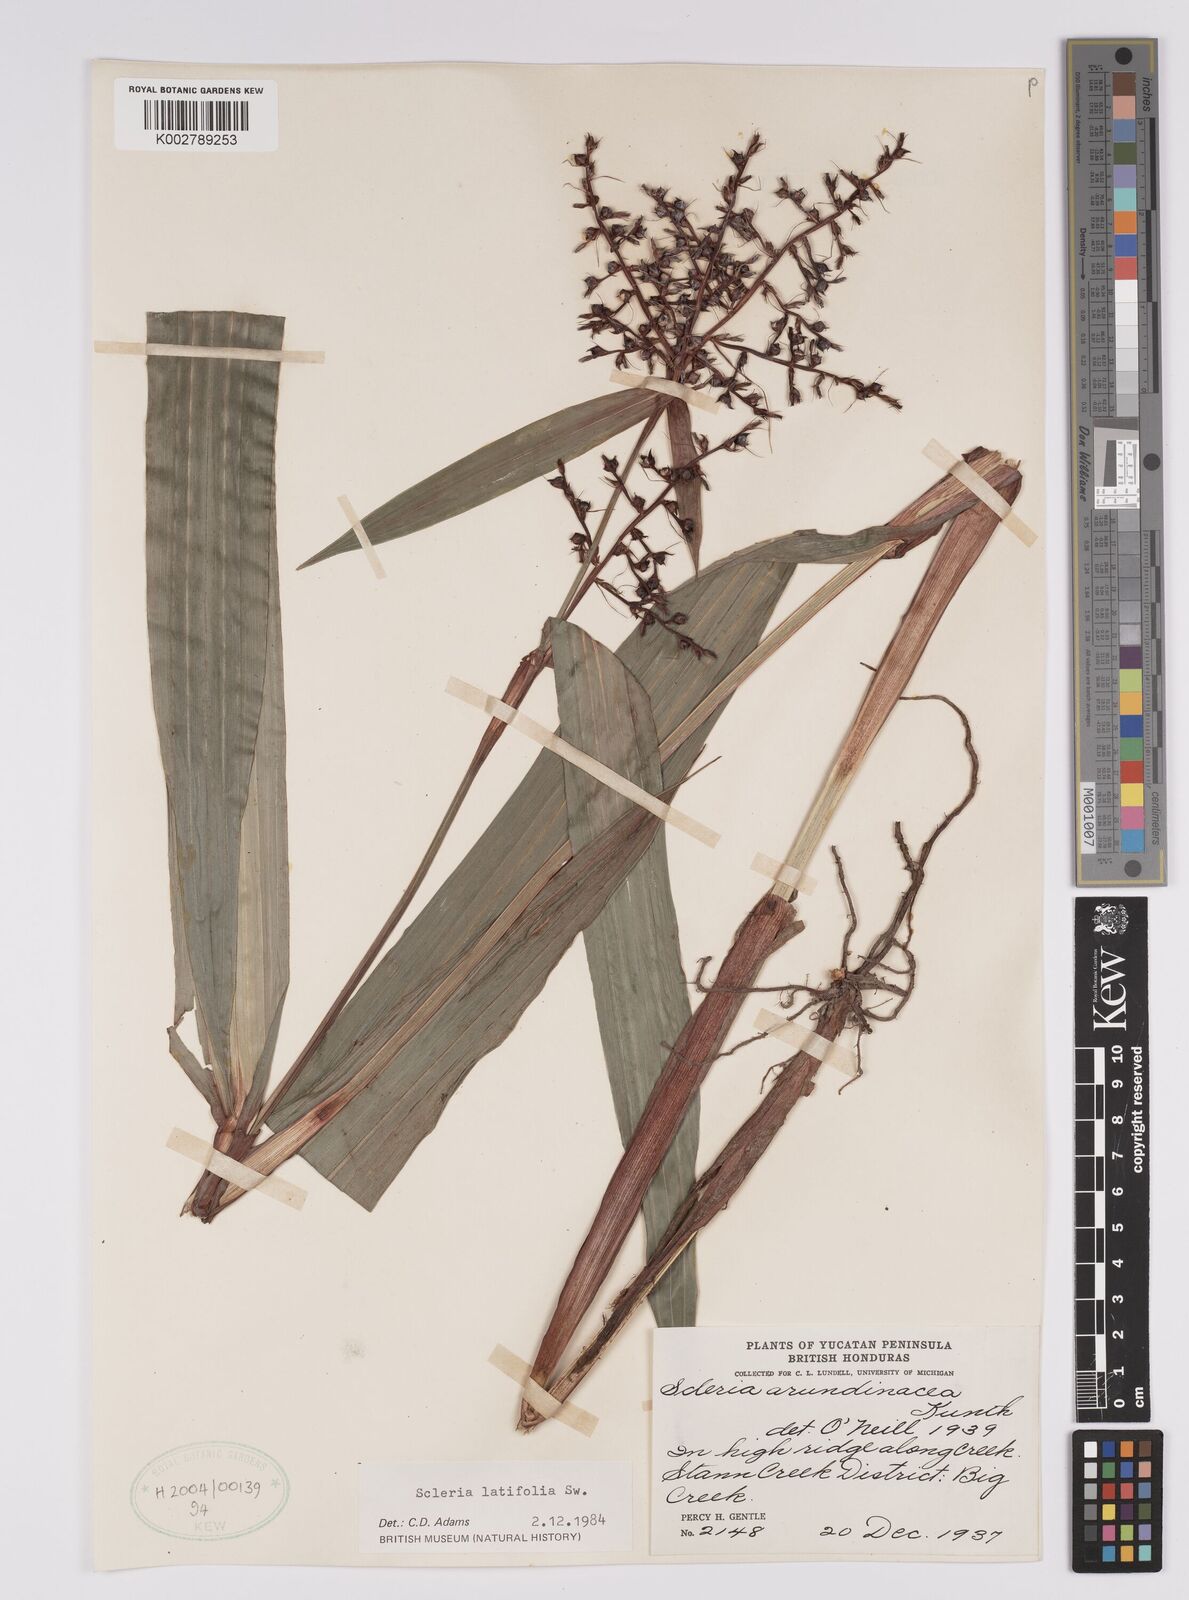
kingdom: Plantae
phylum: Tracheophyta
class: Liliopsida
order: Poales
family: Cyperaceae
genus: Scleria
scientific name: Scleria latifolia
